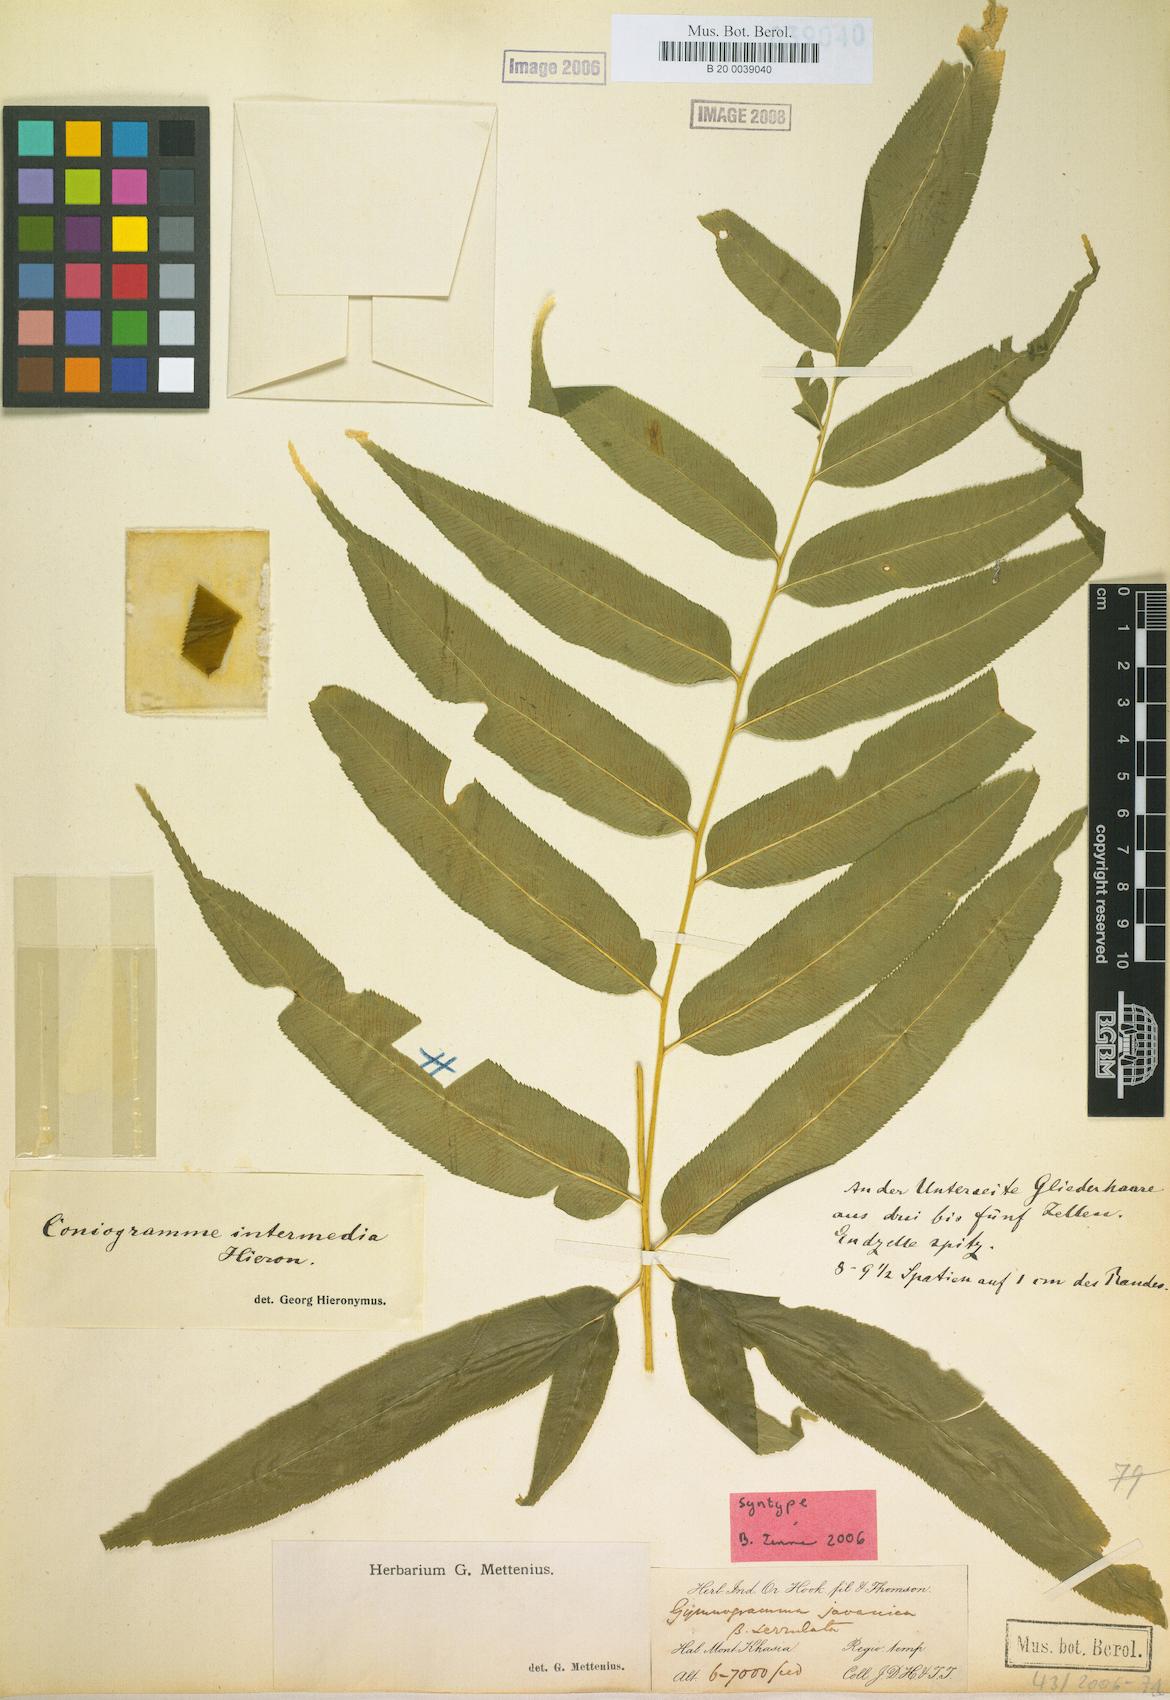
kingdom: Plantae
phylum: Tracheophyta
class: Polypodiopsida
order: Polypodiales
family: Pteridaceae
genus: Coniogramme
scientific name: Coniogramme intermedia
